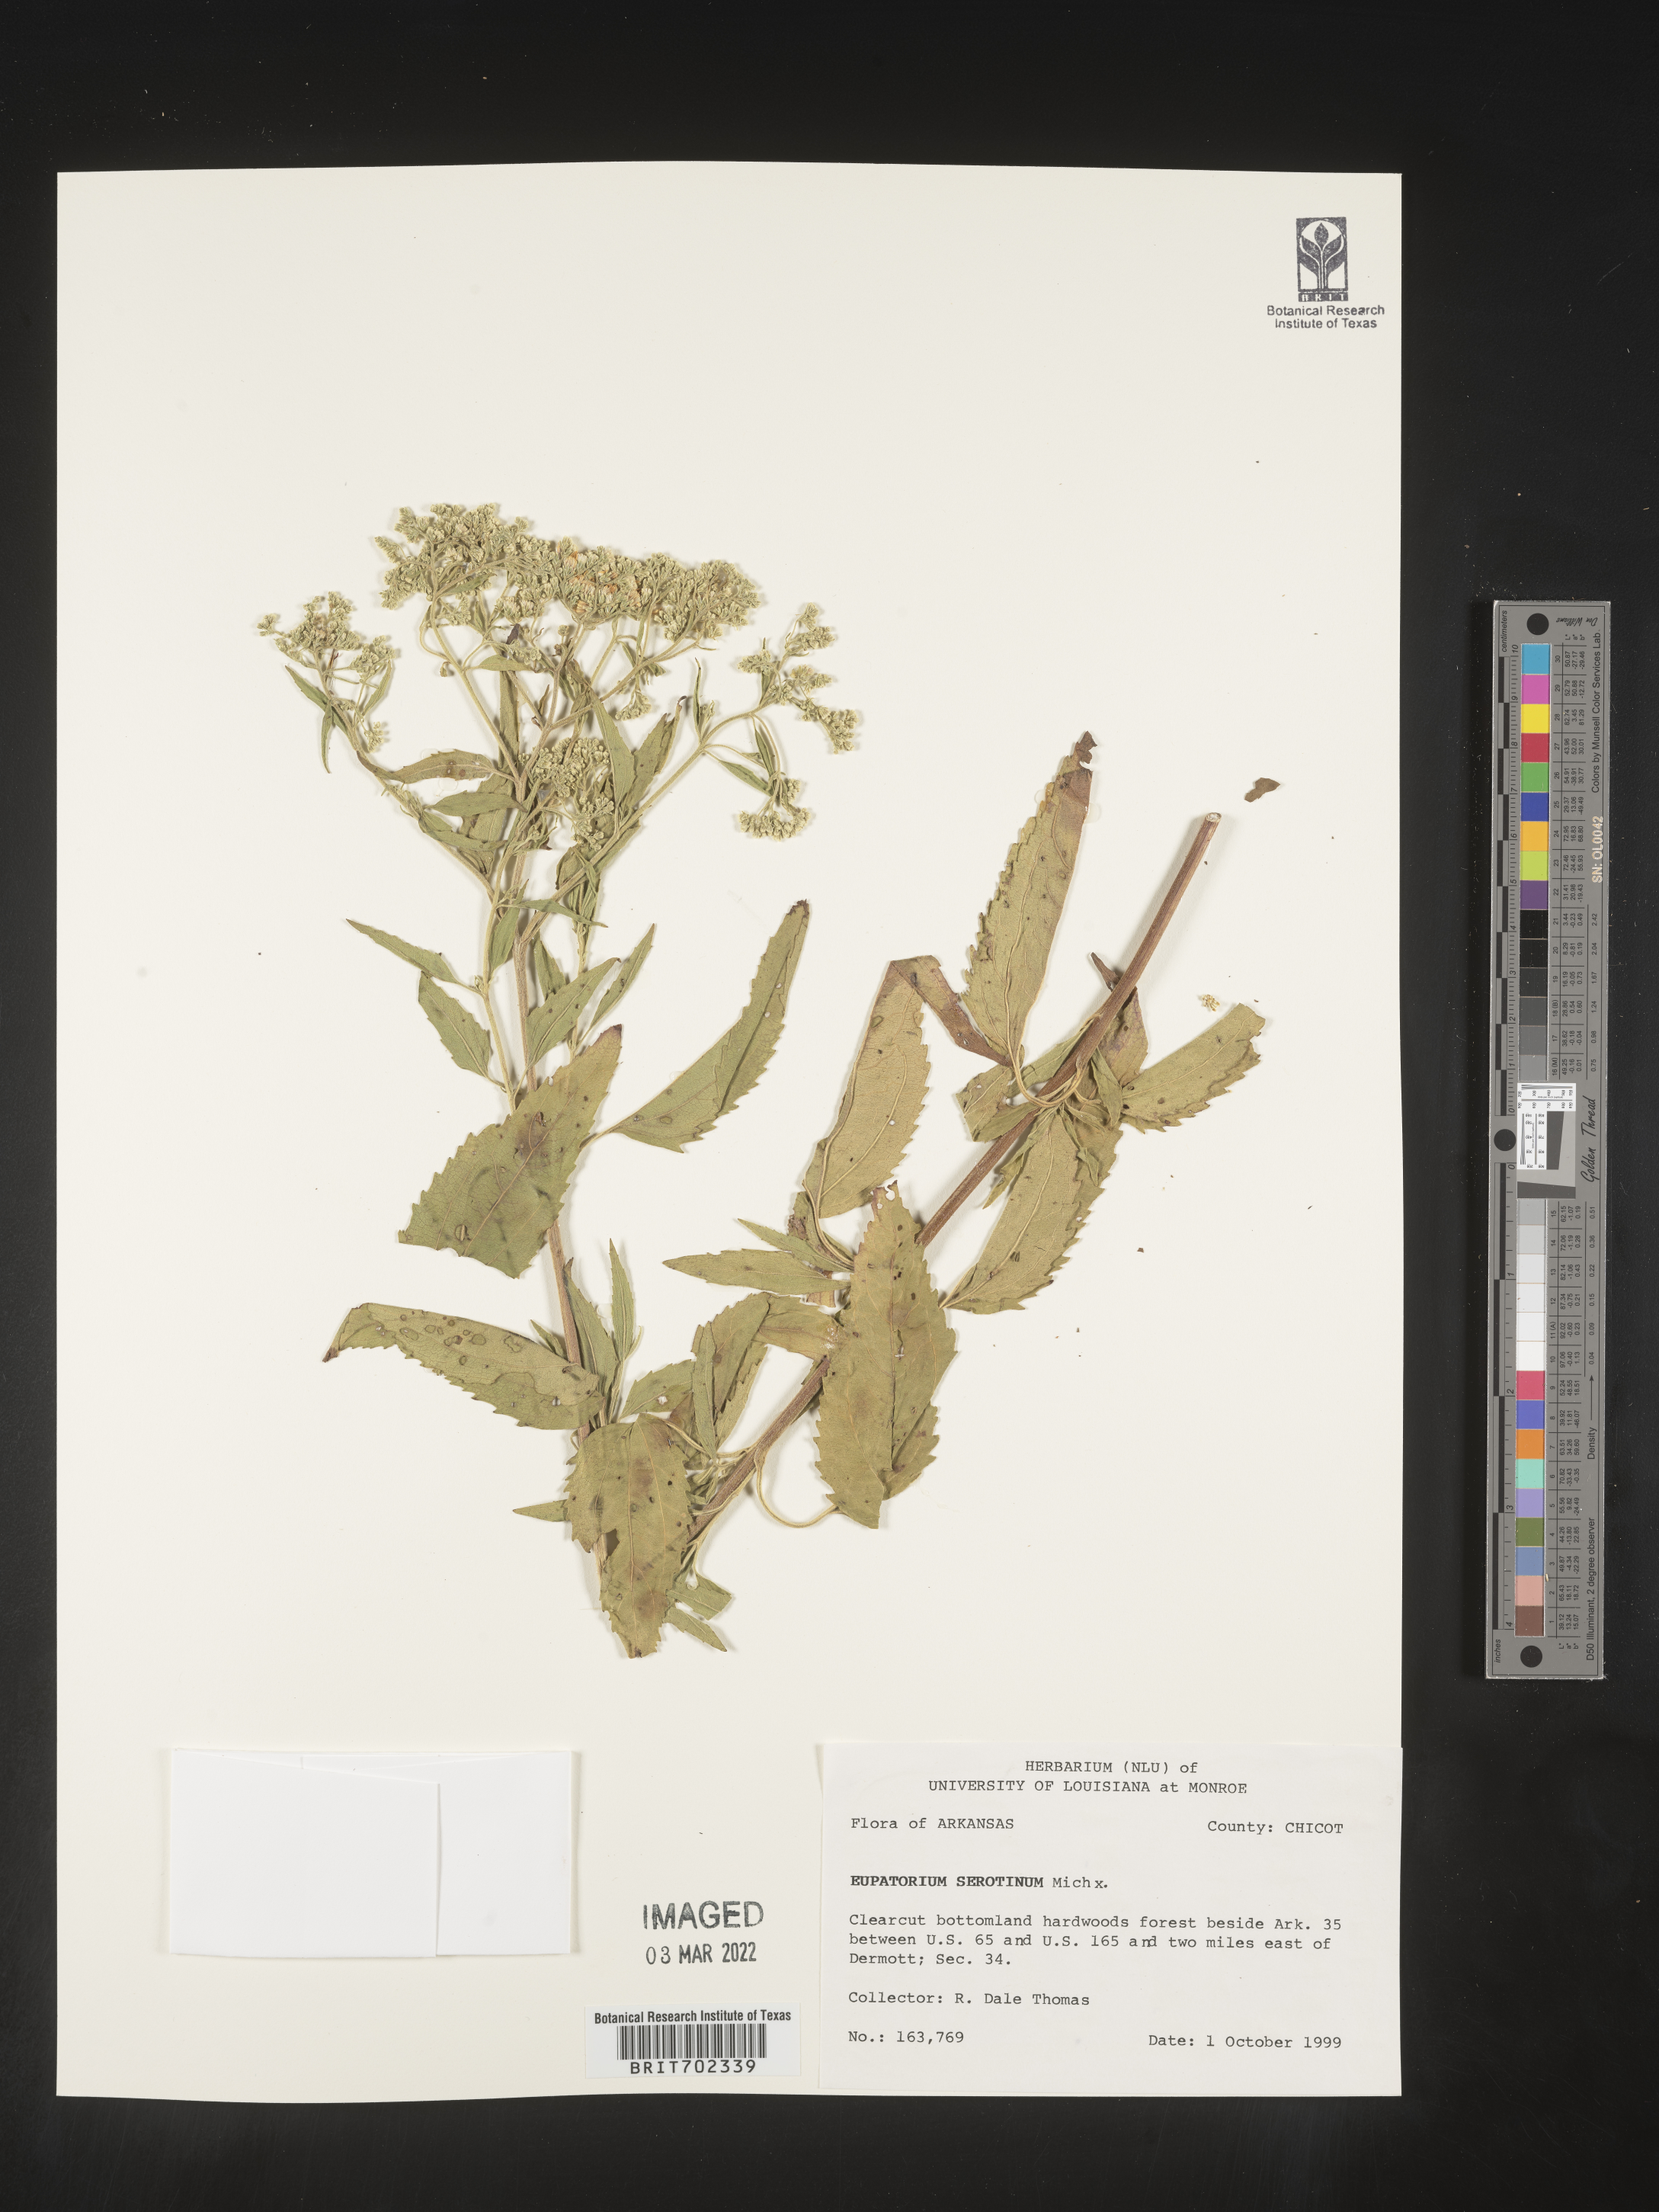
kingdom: Plantae
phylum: Tracheophyta
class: Magnoliopsida
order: Asterales
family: Asteraceae
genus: Eupatorium
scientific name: Eupatorium serotinum
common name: Late boneset
